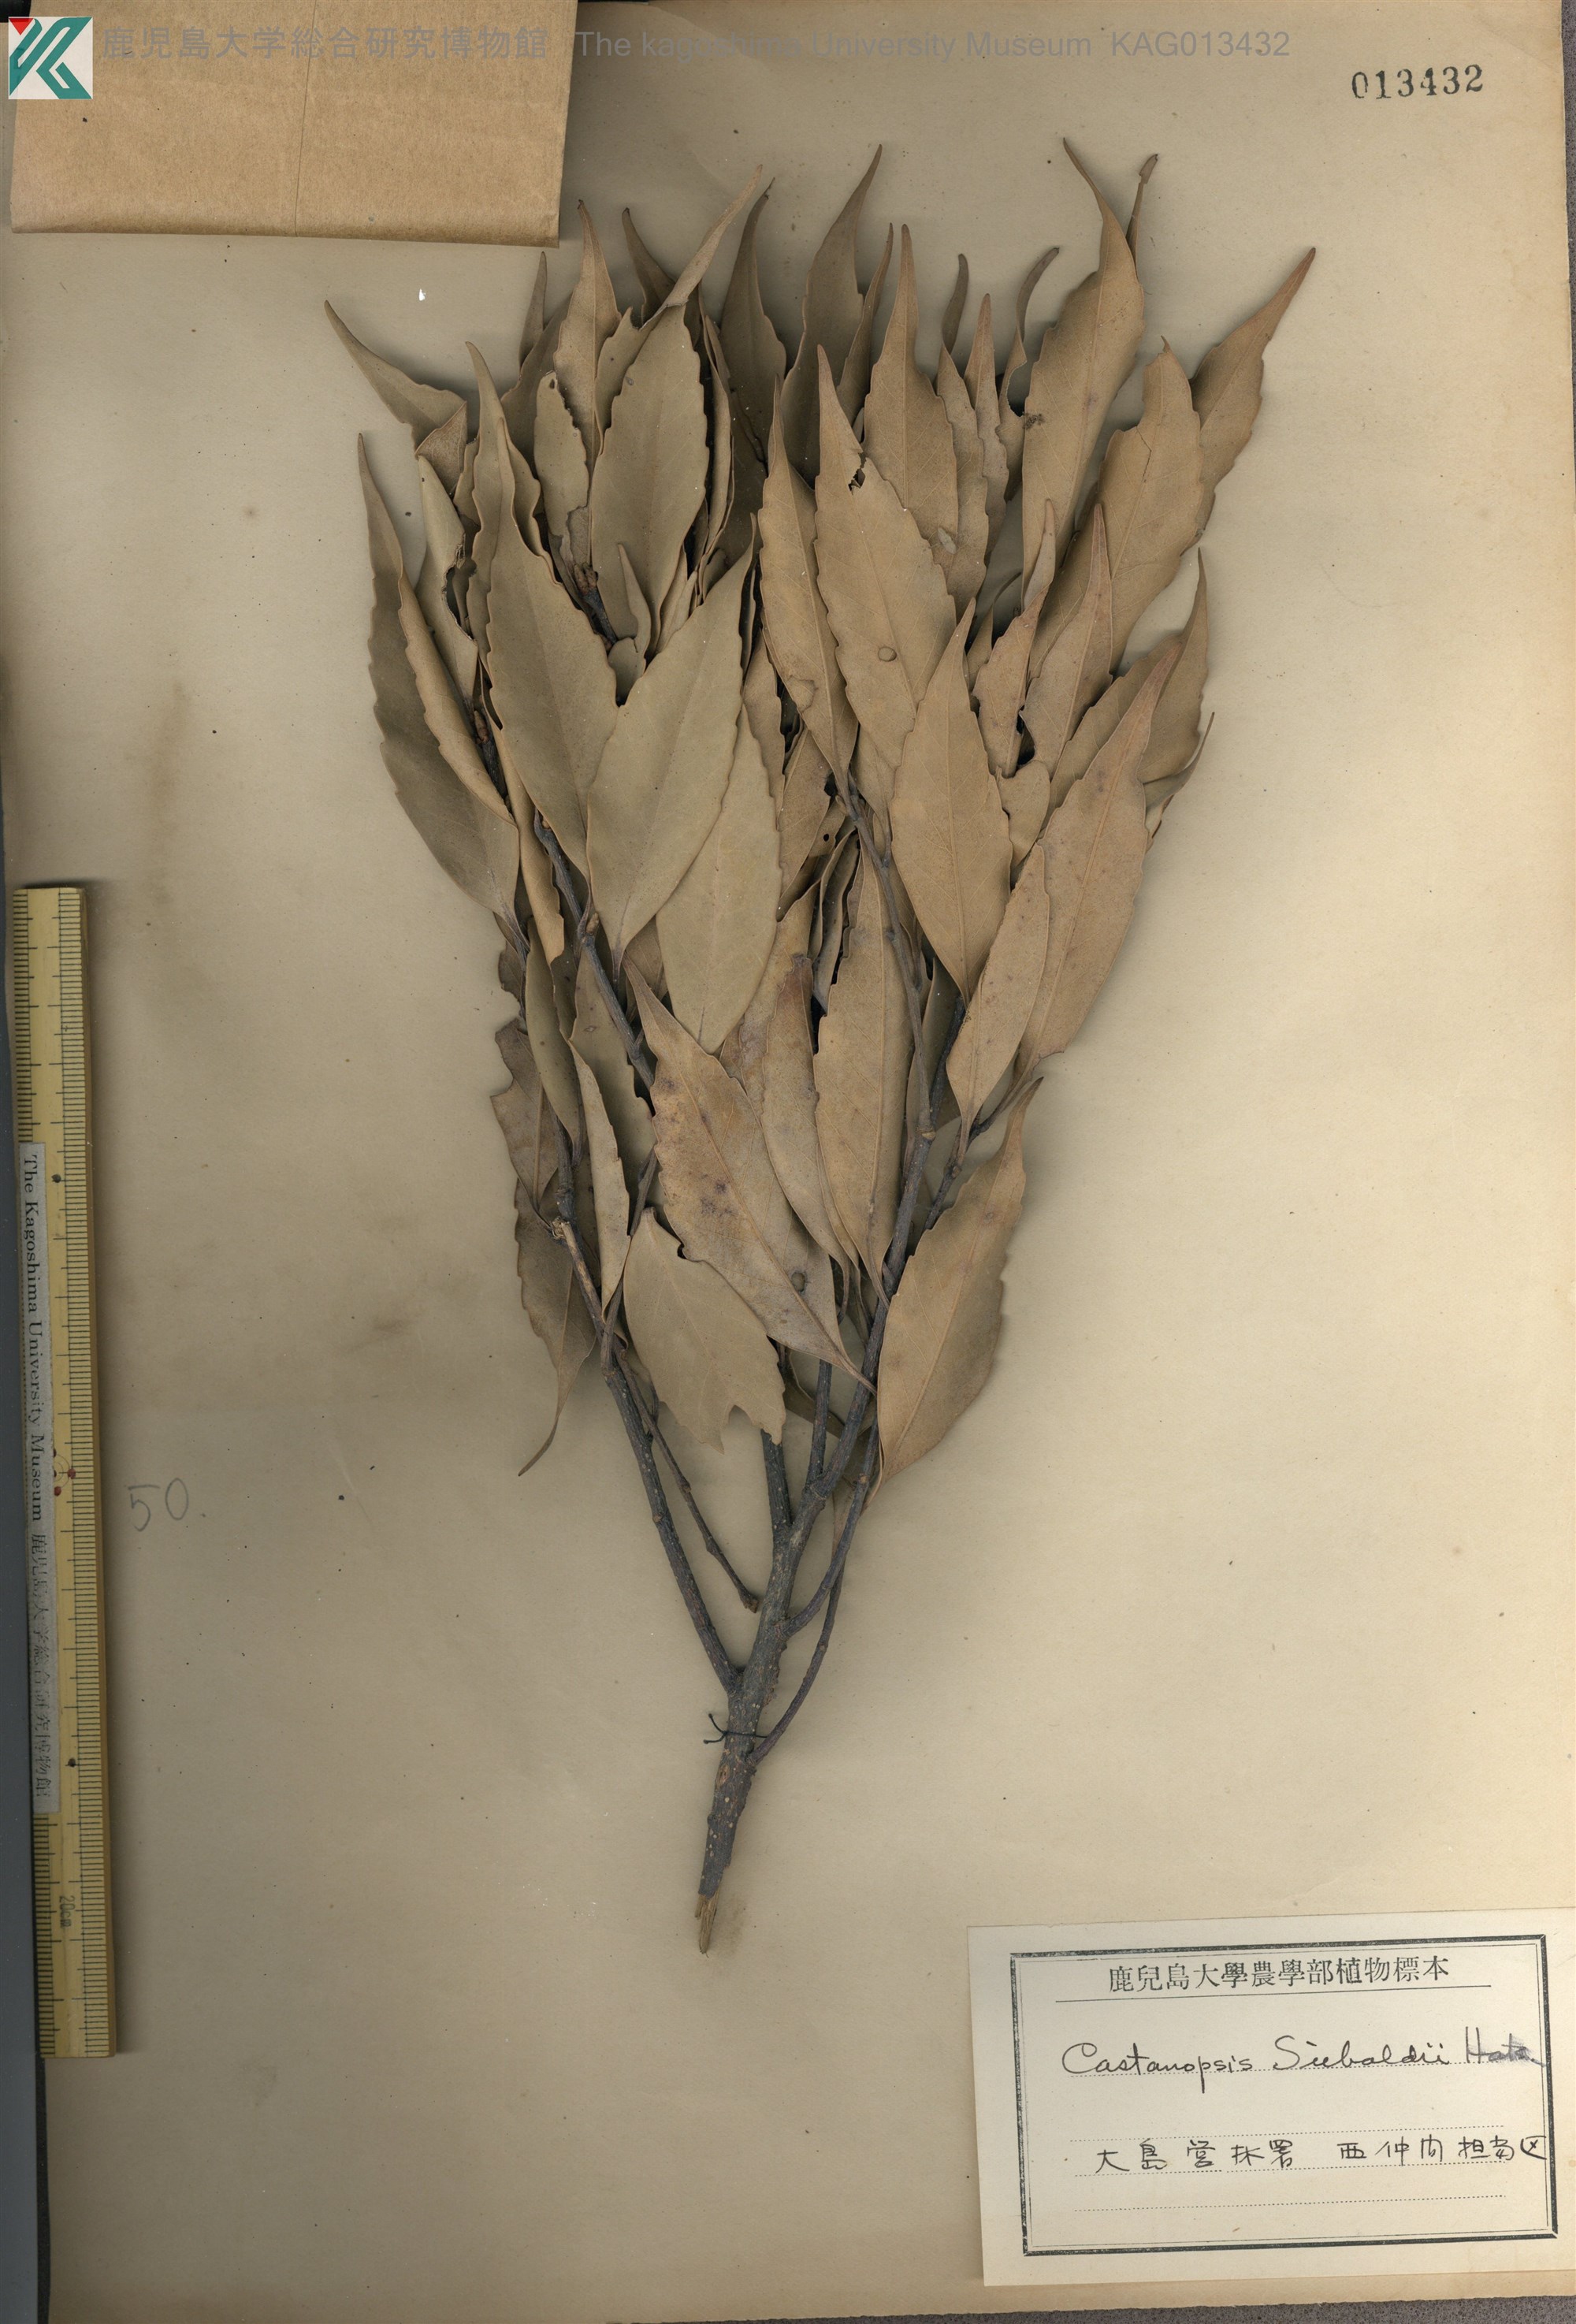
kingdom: Plantae
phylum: Tracheophyta
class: Magnoliopsida
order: Fagales
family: Fagaceae
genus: Castanopsis
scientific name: Castanopsis sieboldii
